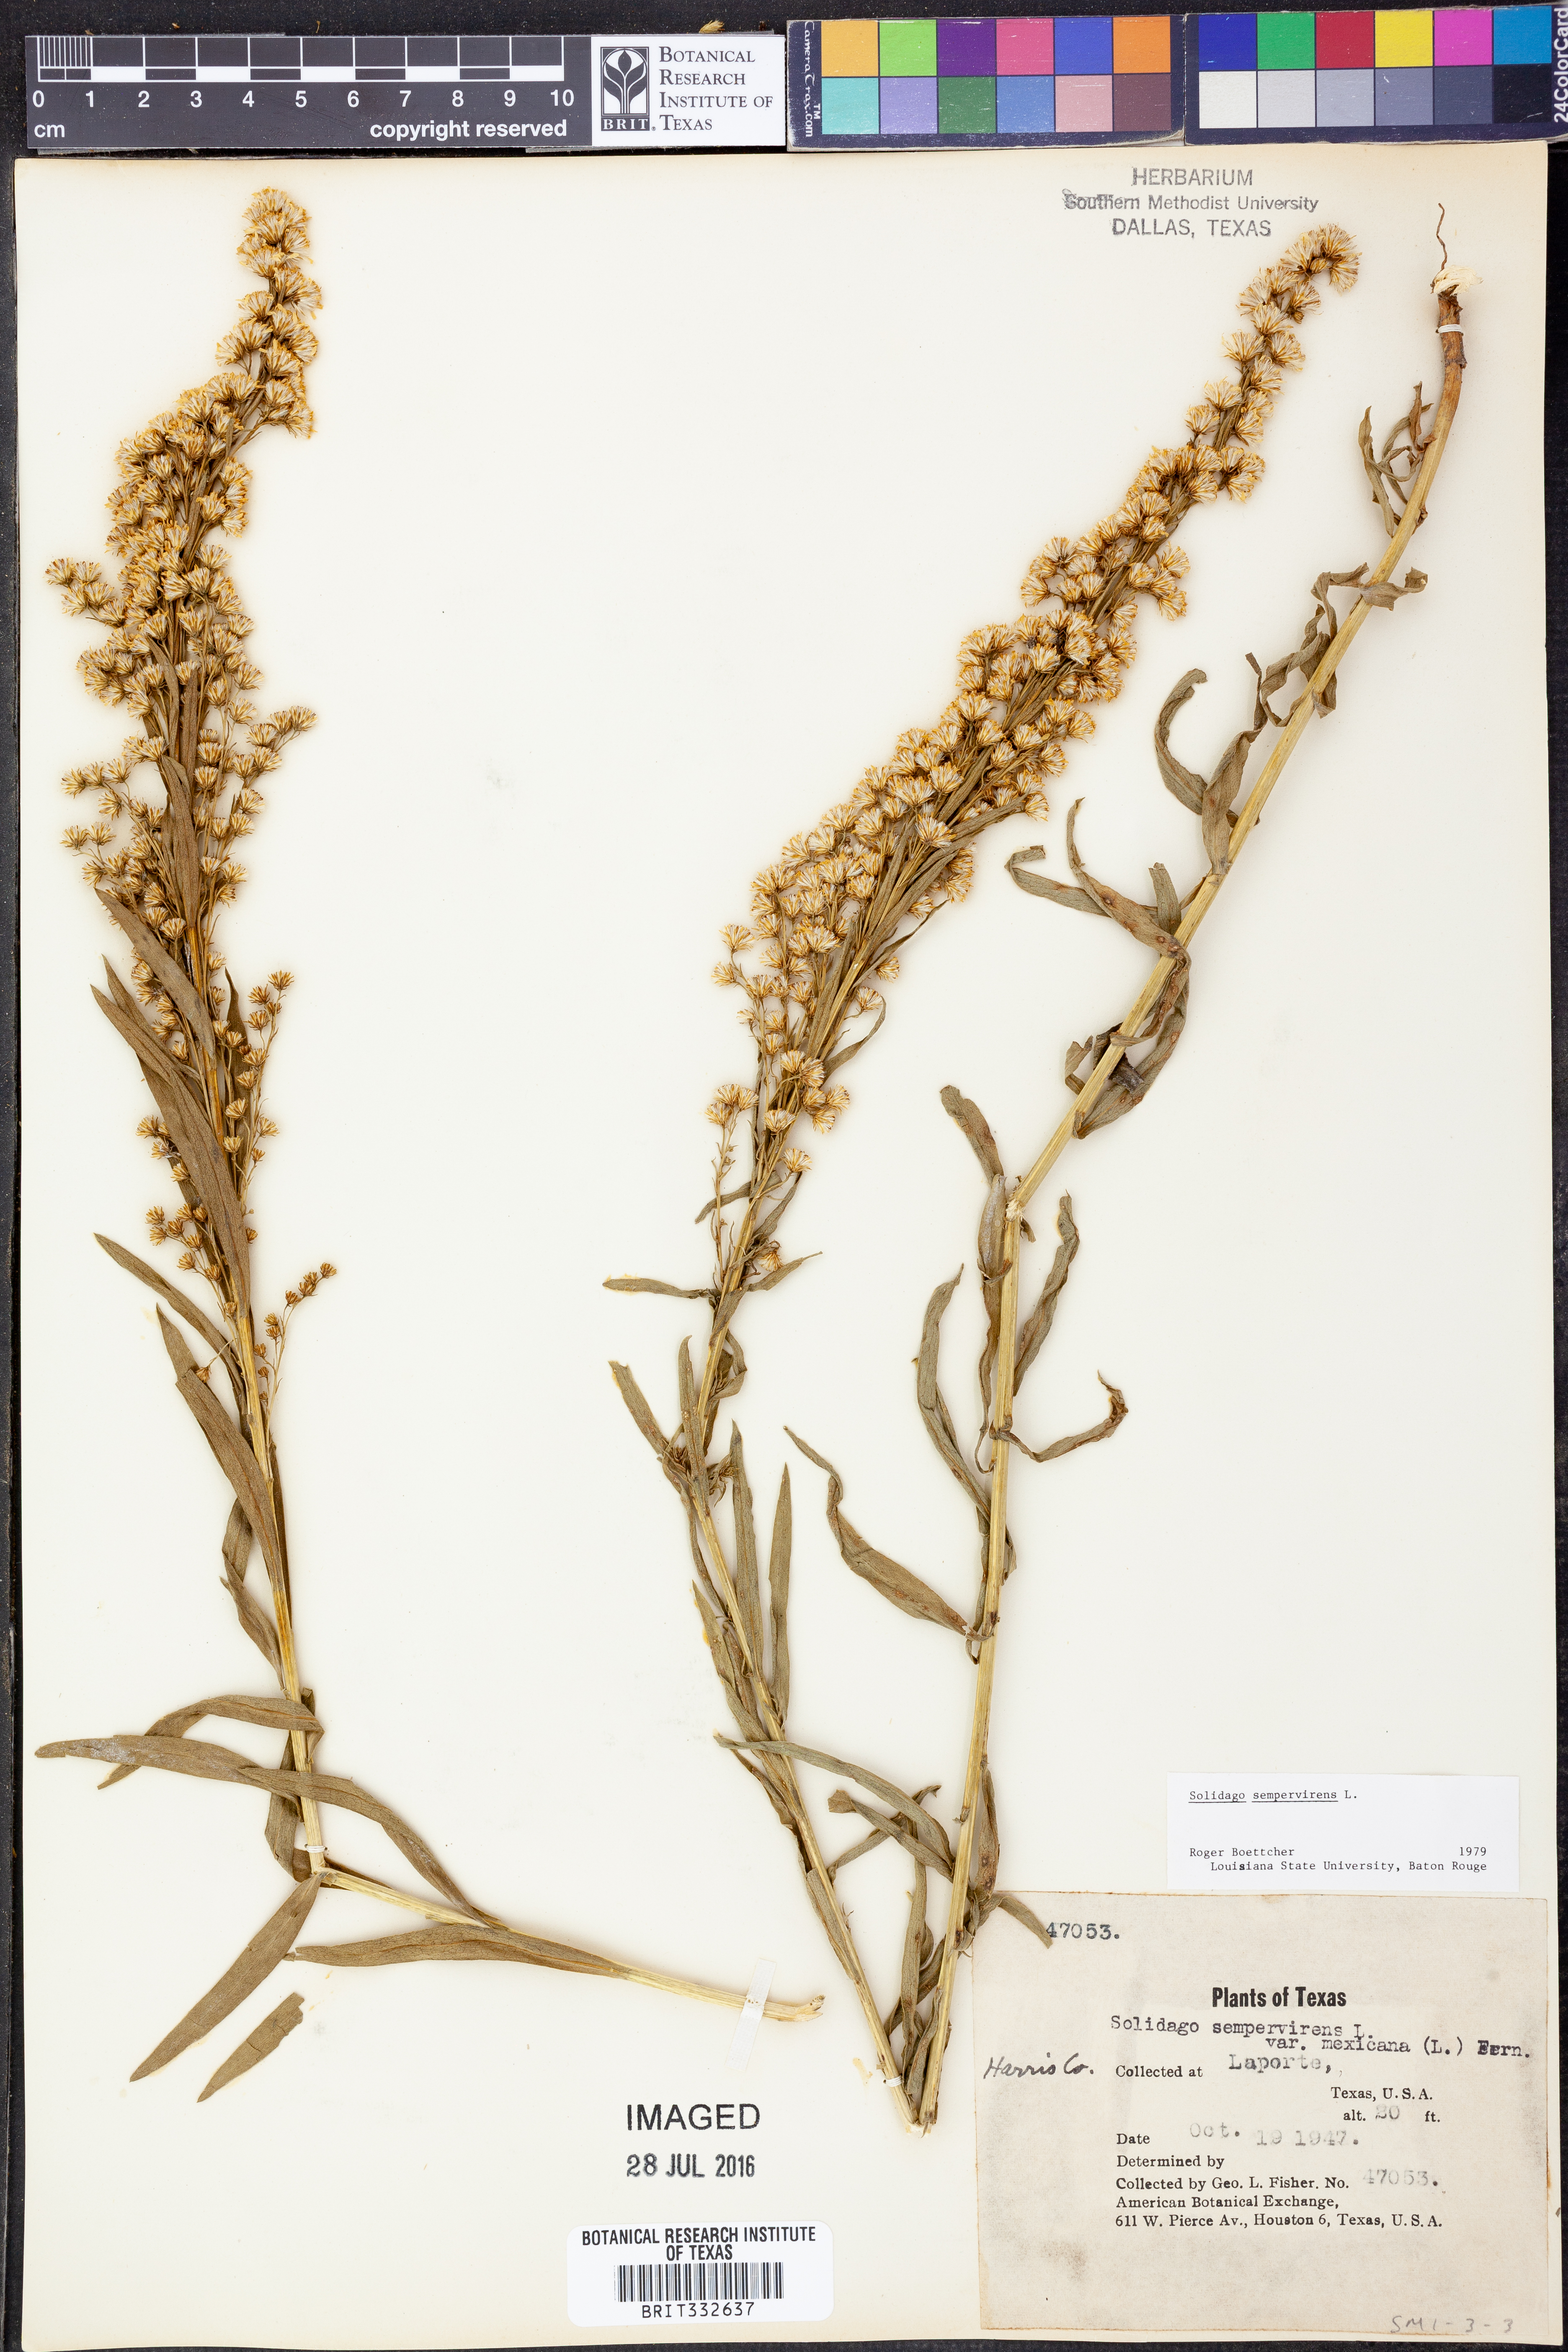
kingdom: Plantae
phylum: Tracheophyta
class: Magnoliopsida
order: Asterales
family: Asteraceae
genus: Solidago
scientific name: Solidago sempervirens
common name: Salt-marsh goldenrod
